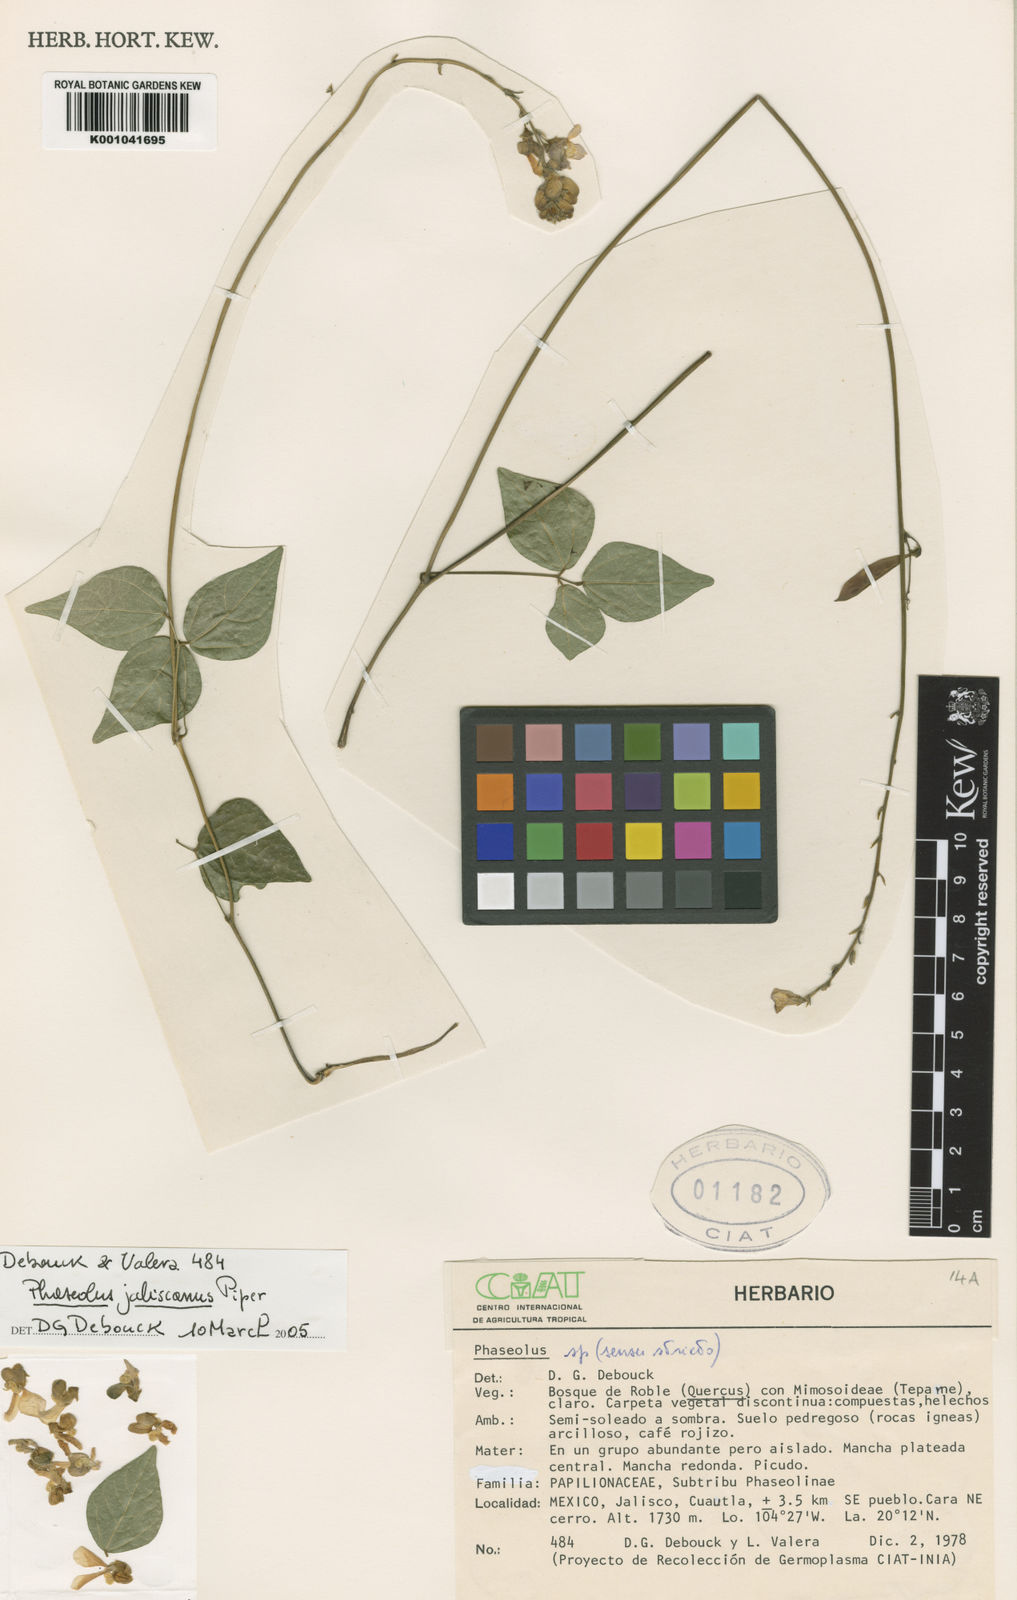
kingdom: Plantae
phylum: Tracheophyta
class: Magnoliopsida
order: Fabales
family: Fabaceae
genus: Phaseolus
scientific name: Phaseolus jaliscanus
